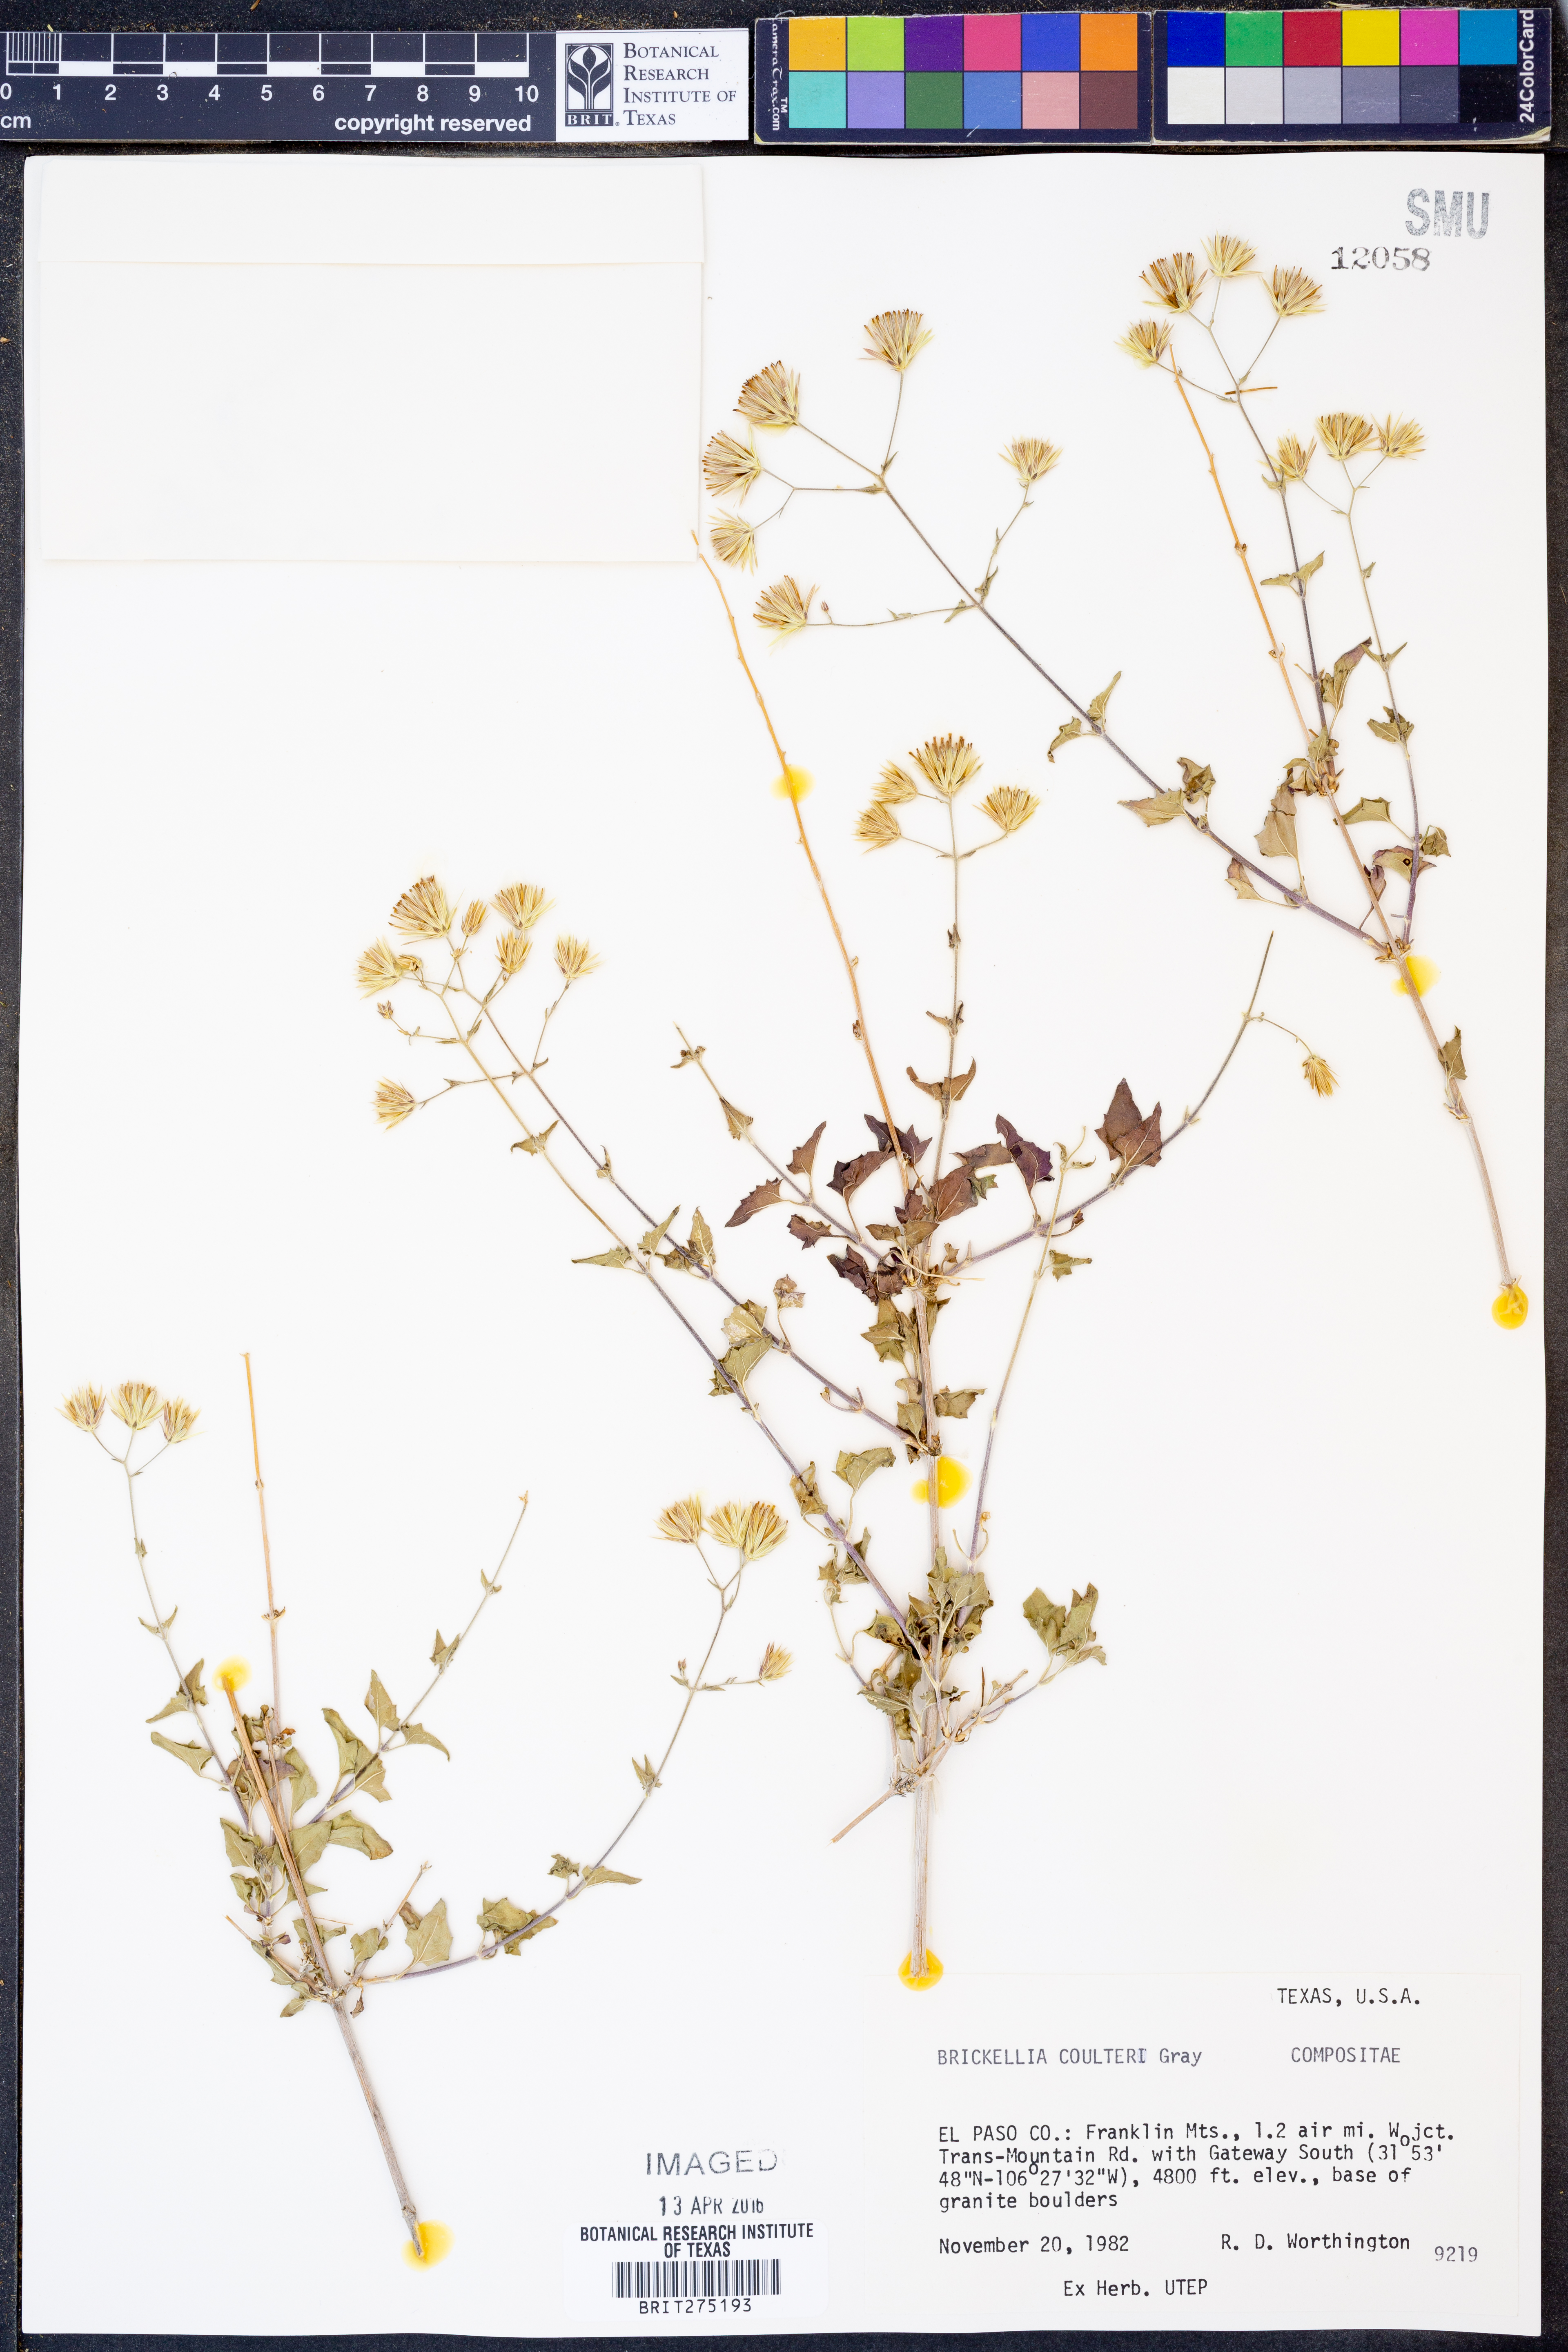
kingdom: Plantae
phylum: Tracheophyta
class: Magnoliopsida
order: Asterales
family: Asteraceae
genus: Brickellia
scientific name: Brickellia coulteri
